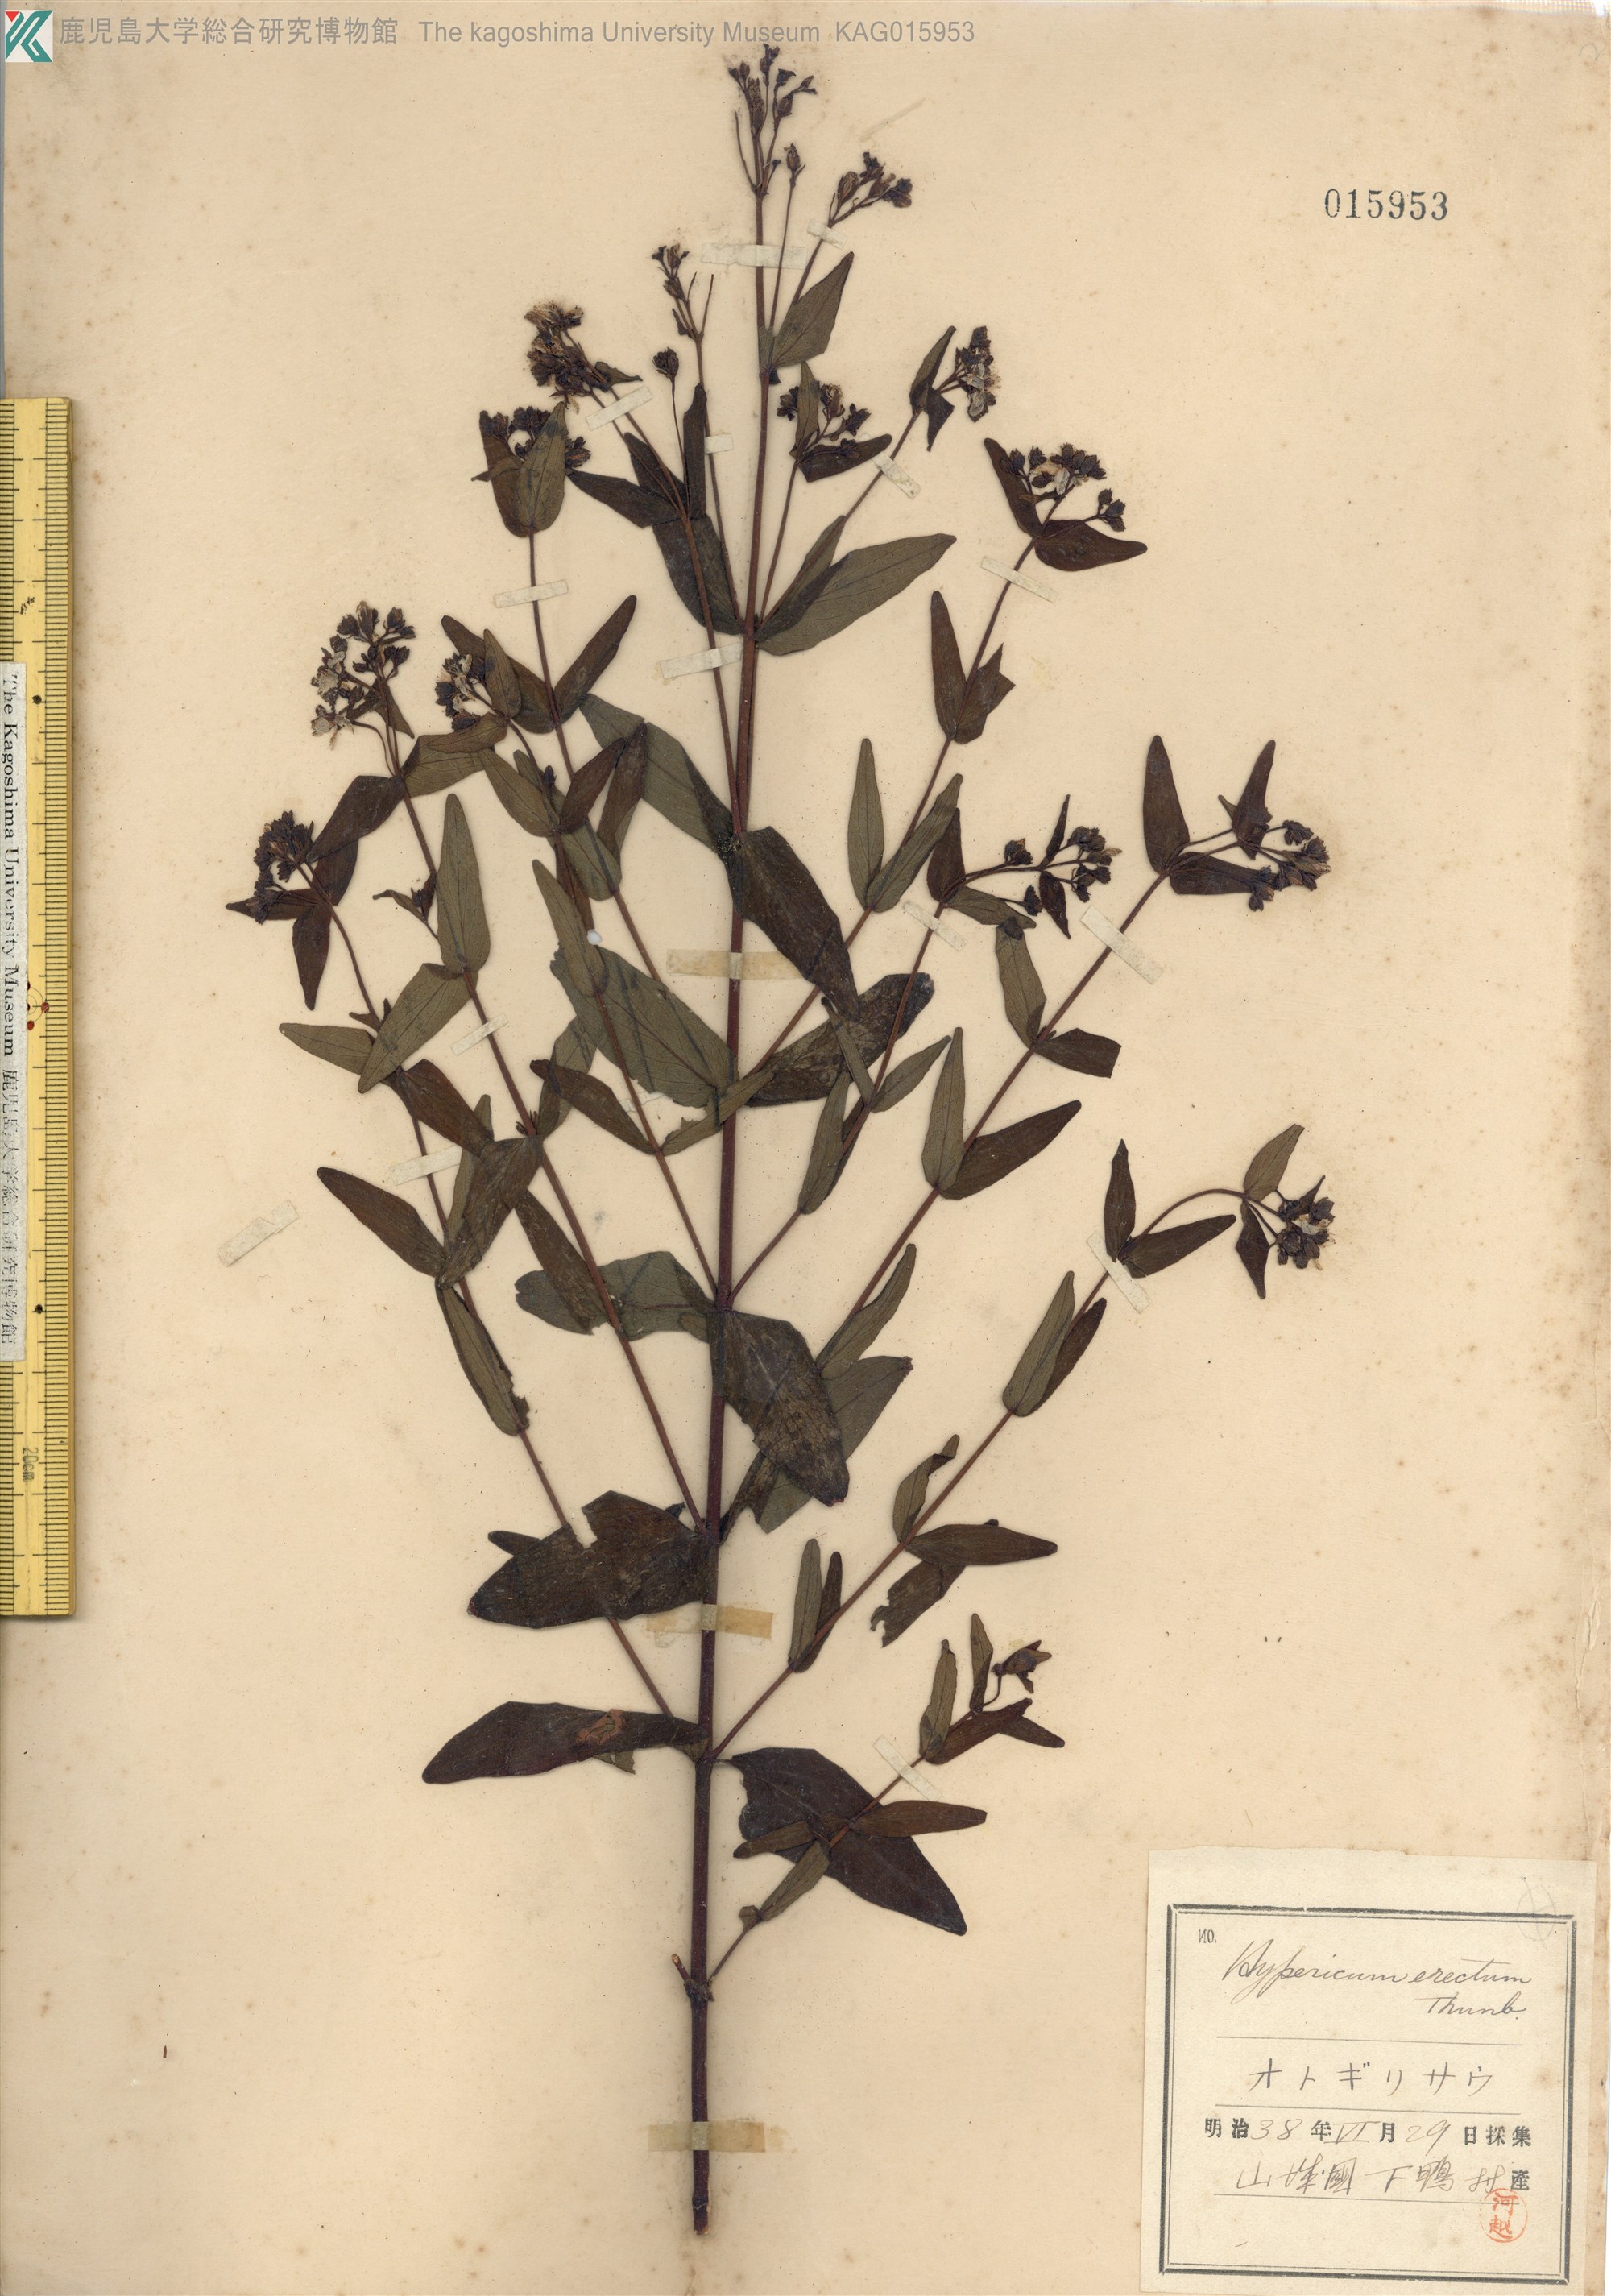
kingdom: Plantae
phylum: Tracheophyta
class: Magnoliopsida
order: Malpighiales
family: Hypericaceae
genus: Hypericum
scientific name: Hypericum erectum
